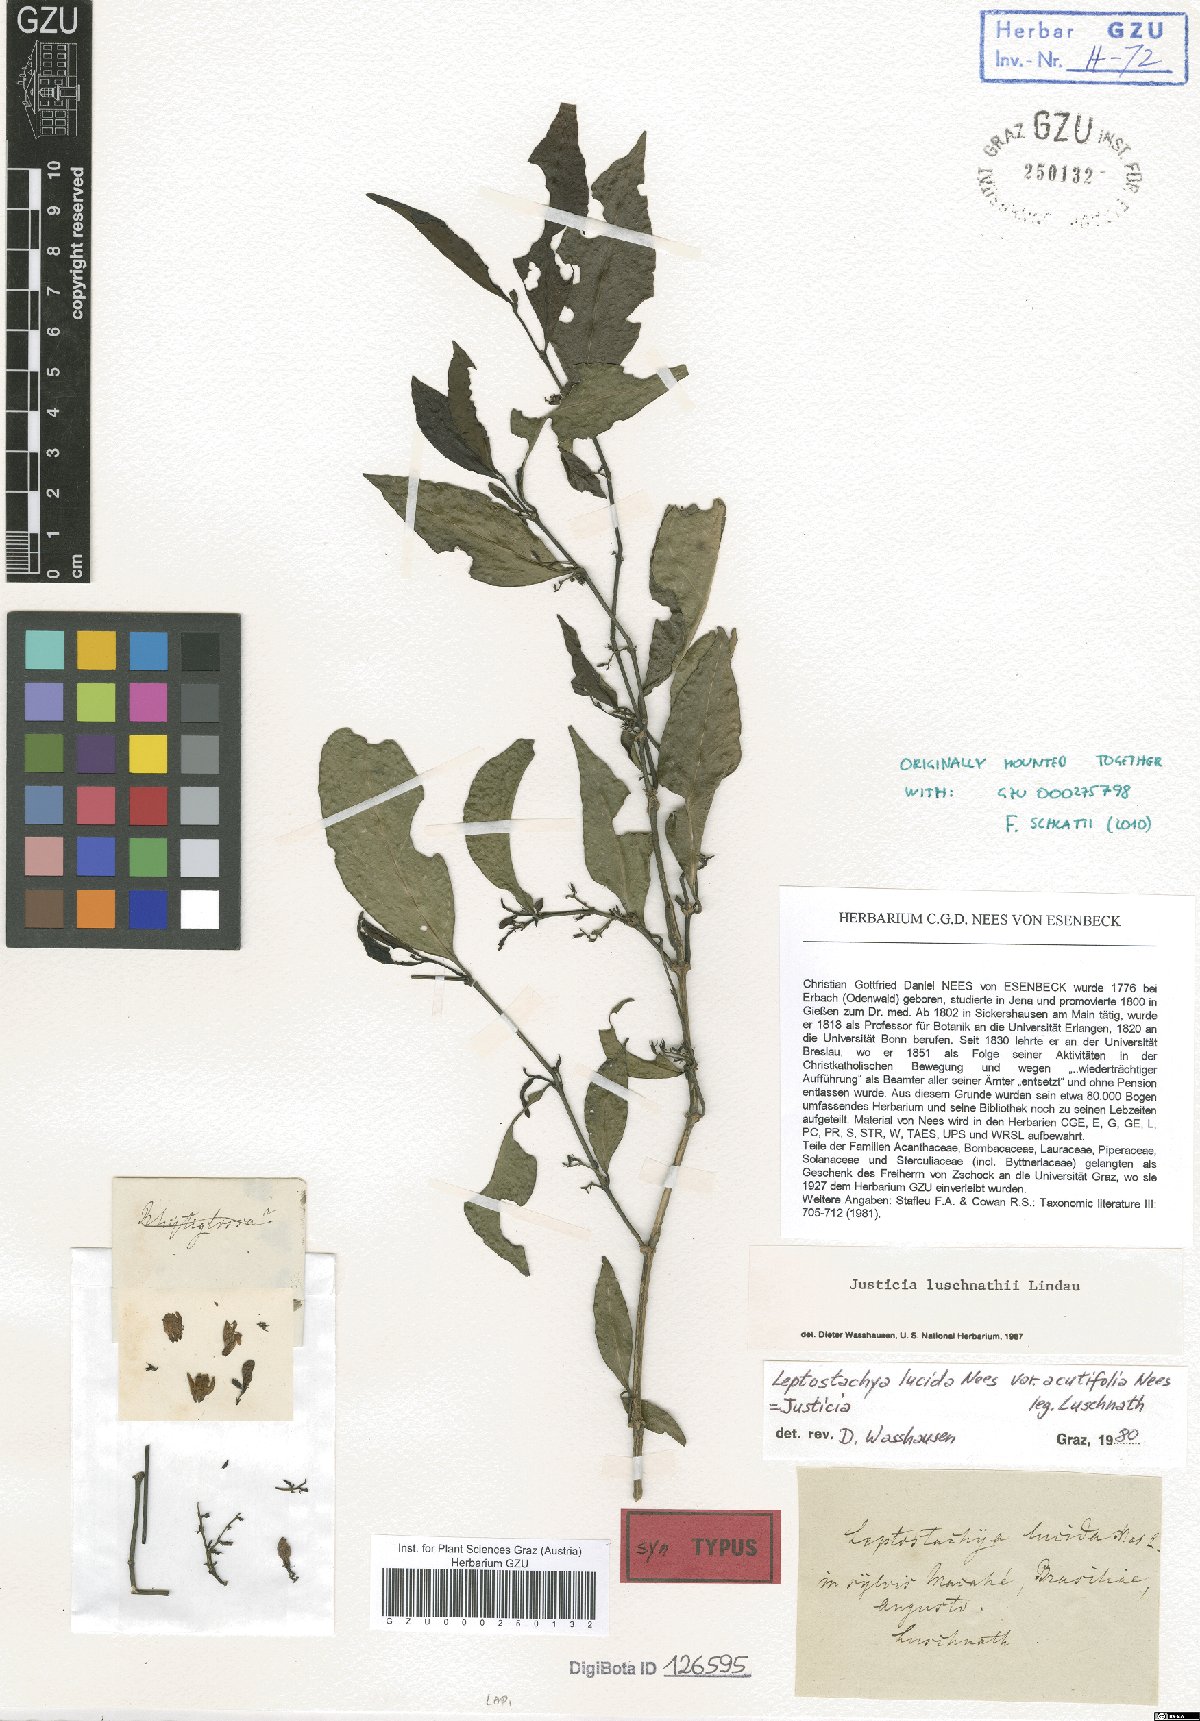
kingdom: Plantae
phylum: Tracheophyta
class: Magnoliopsida
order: Lamiales
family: Acanthaceae
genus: Justicia
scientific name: Justicia luschnathii
